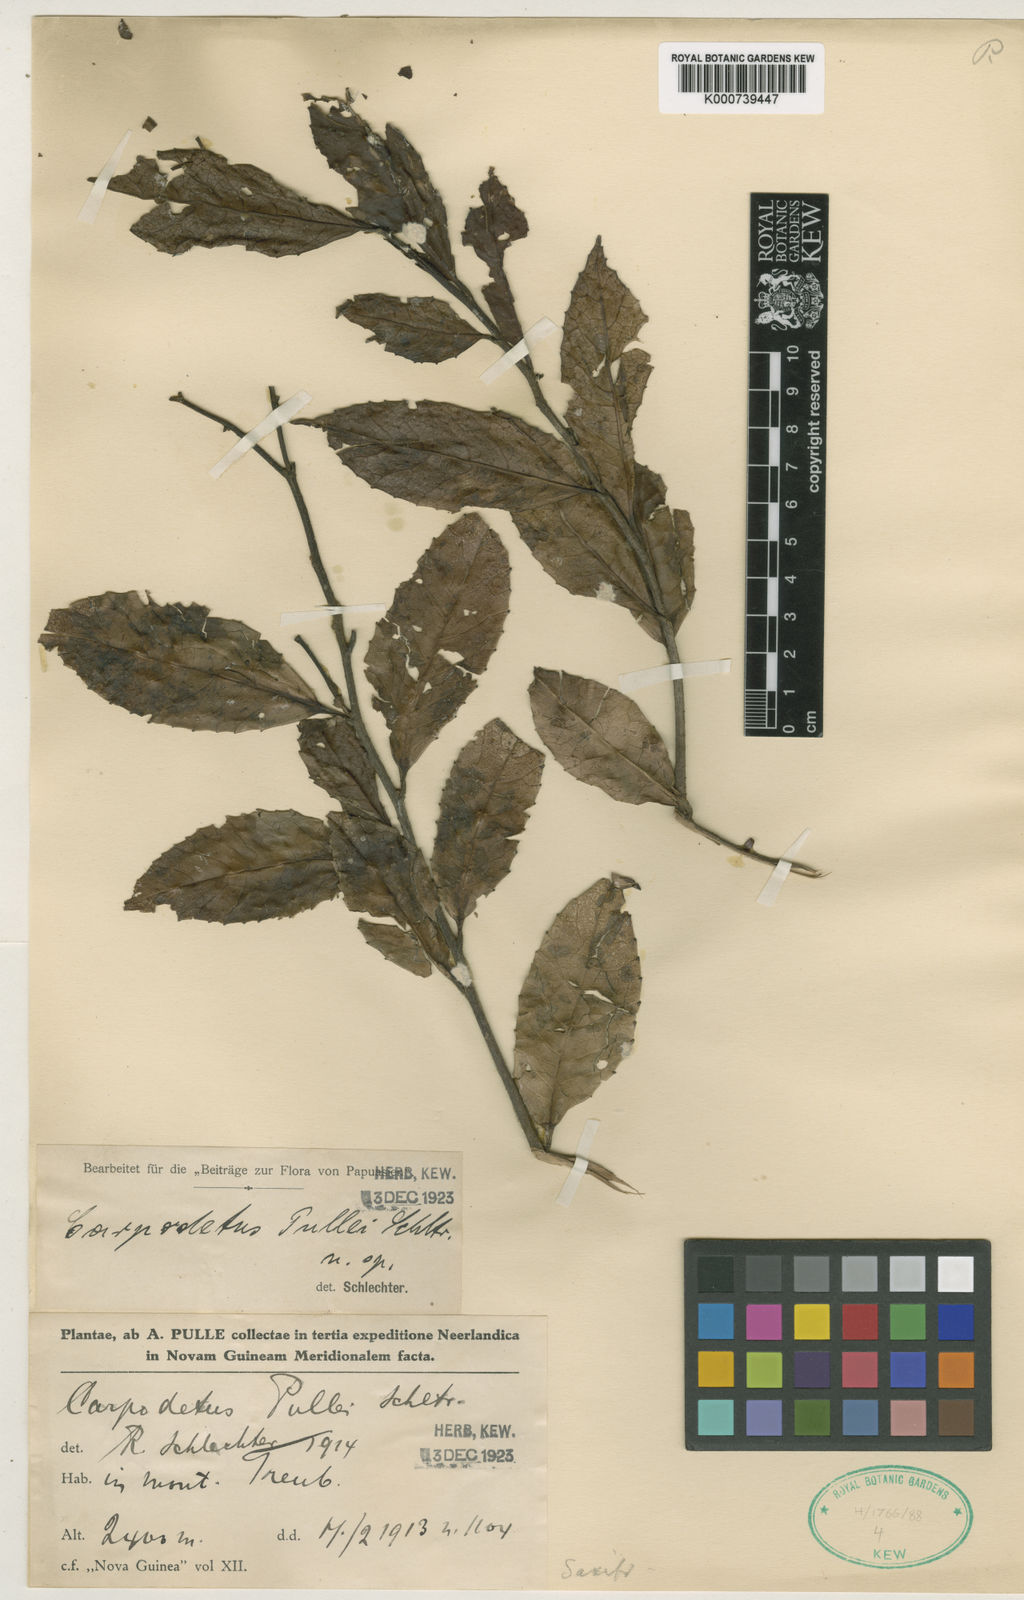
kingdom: Plantae
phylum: Tracheophyta
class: Magnoliopsida
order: Asterales
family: Rousseaceae
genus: Carpodetus
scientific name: Carpodetus arboreus
